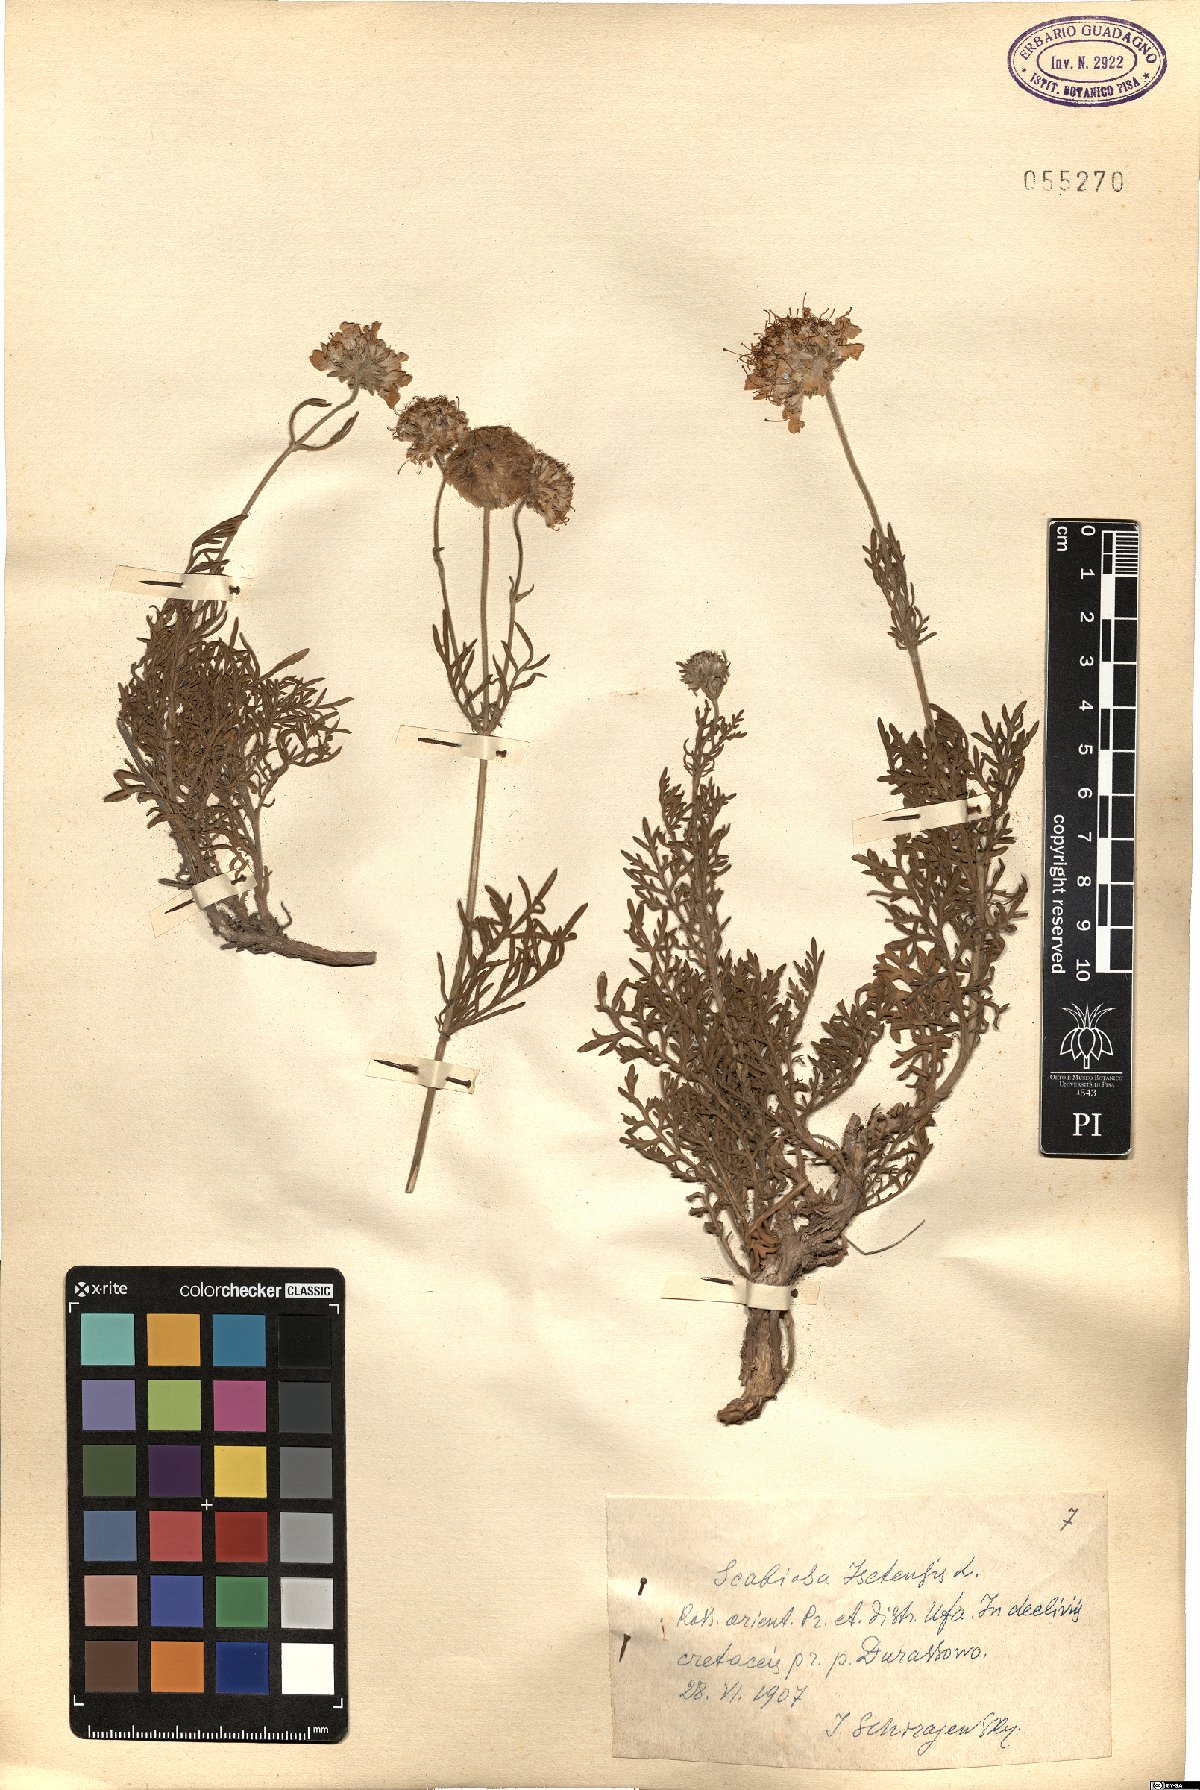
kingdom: Plantae
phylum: Tracheophyta
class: Magnoliopsida
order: Dipsacales
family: Caprifoliaceae
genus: Lomelosia
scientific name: Lomelosia isetensis
